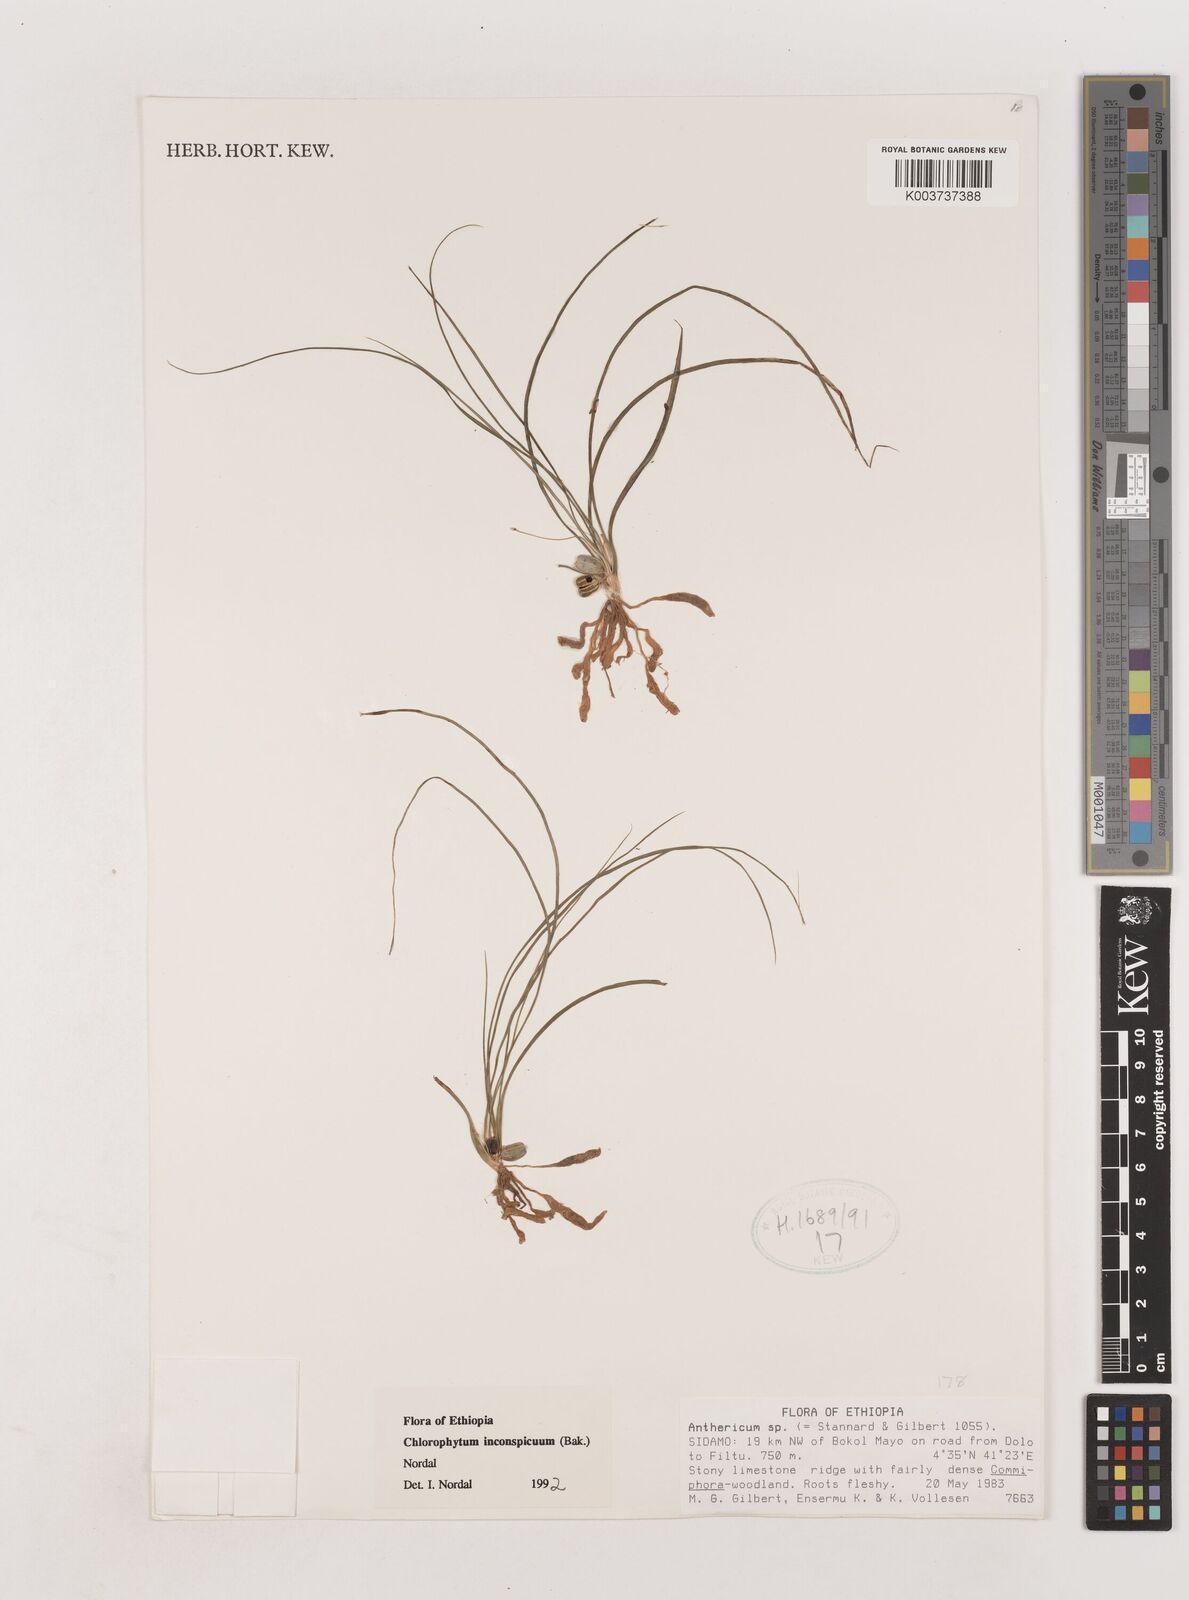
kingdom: Plantae
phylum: Tracheophyta
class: Liliopsida
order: Asparagales
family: Asparagaceae
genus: Chlorophytum
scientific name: Chlorophytum inconspicuum
